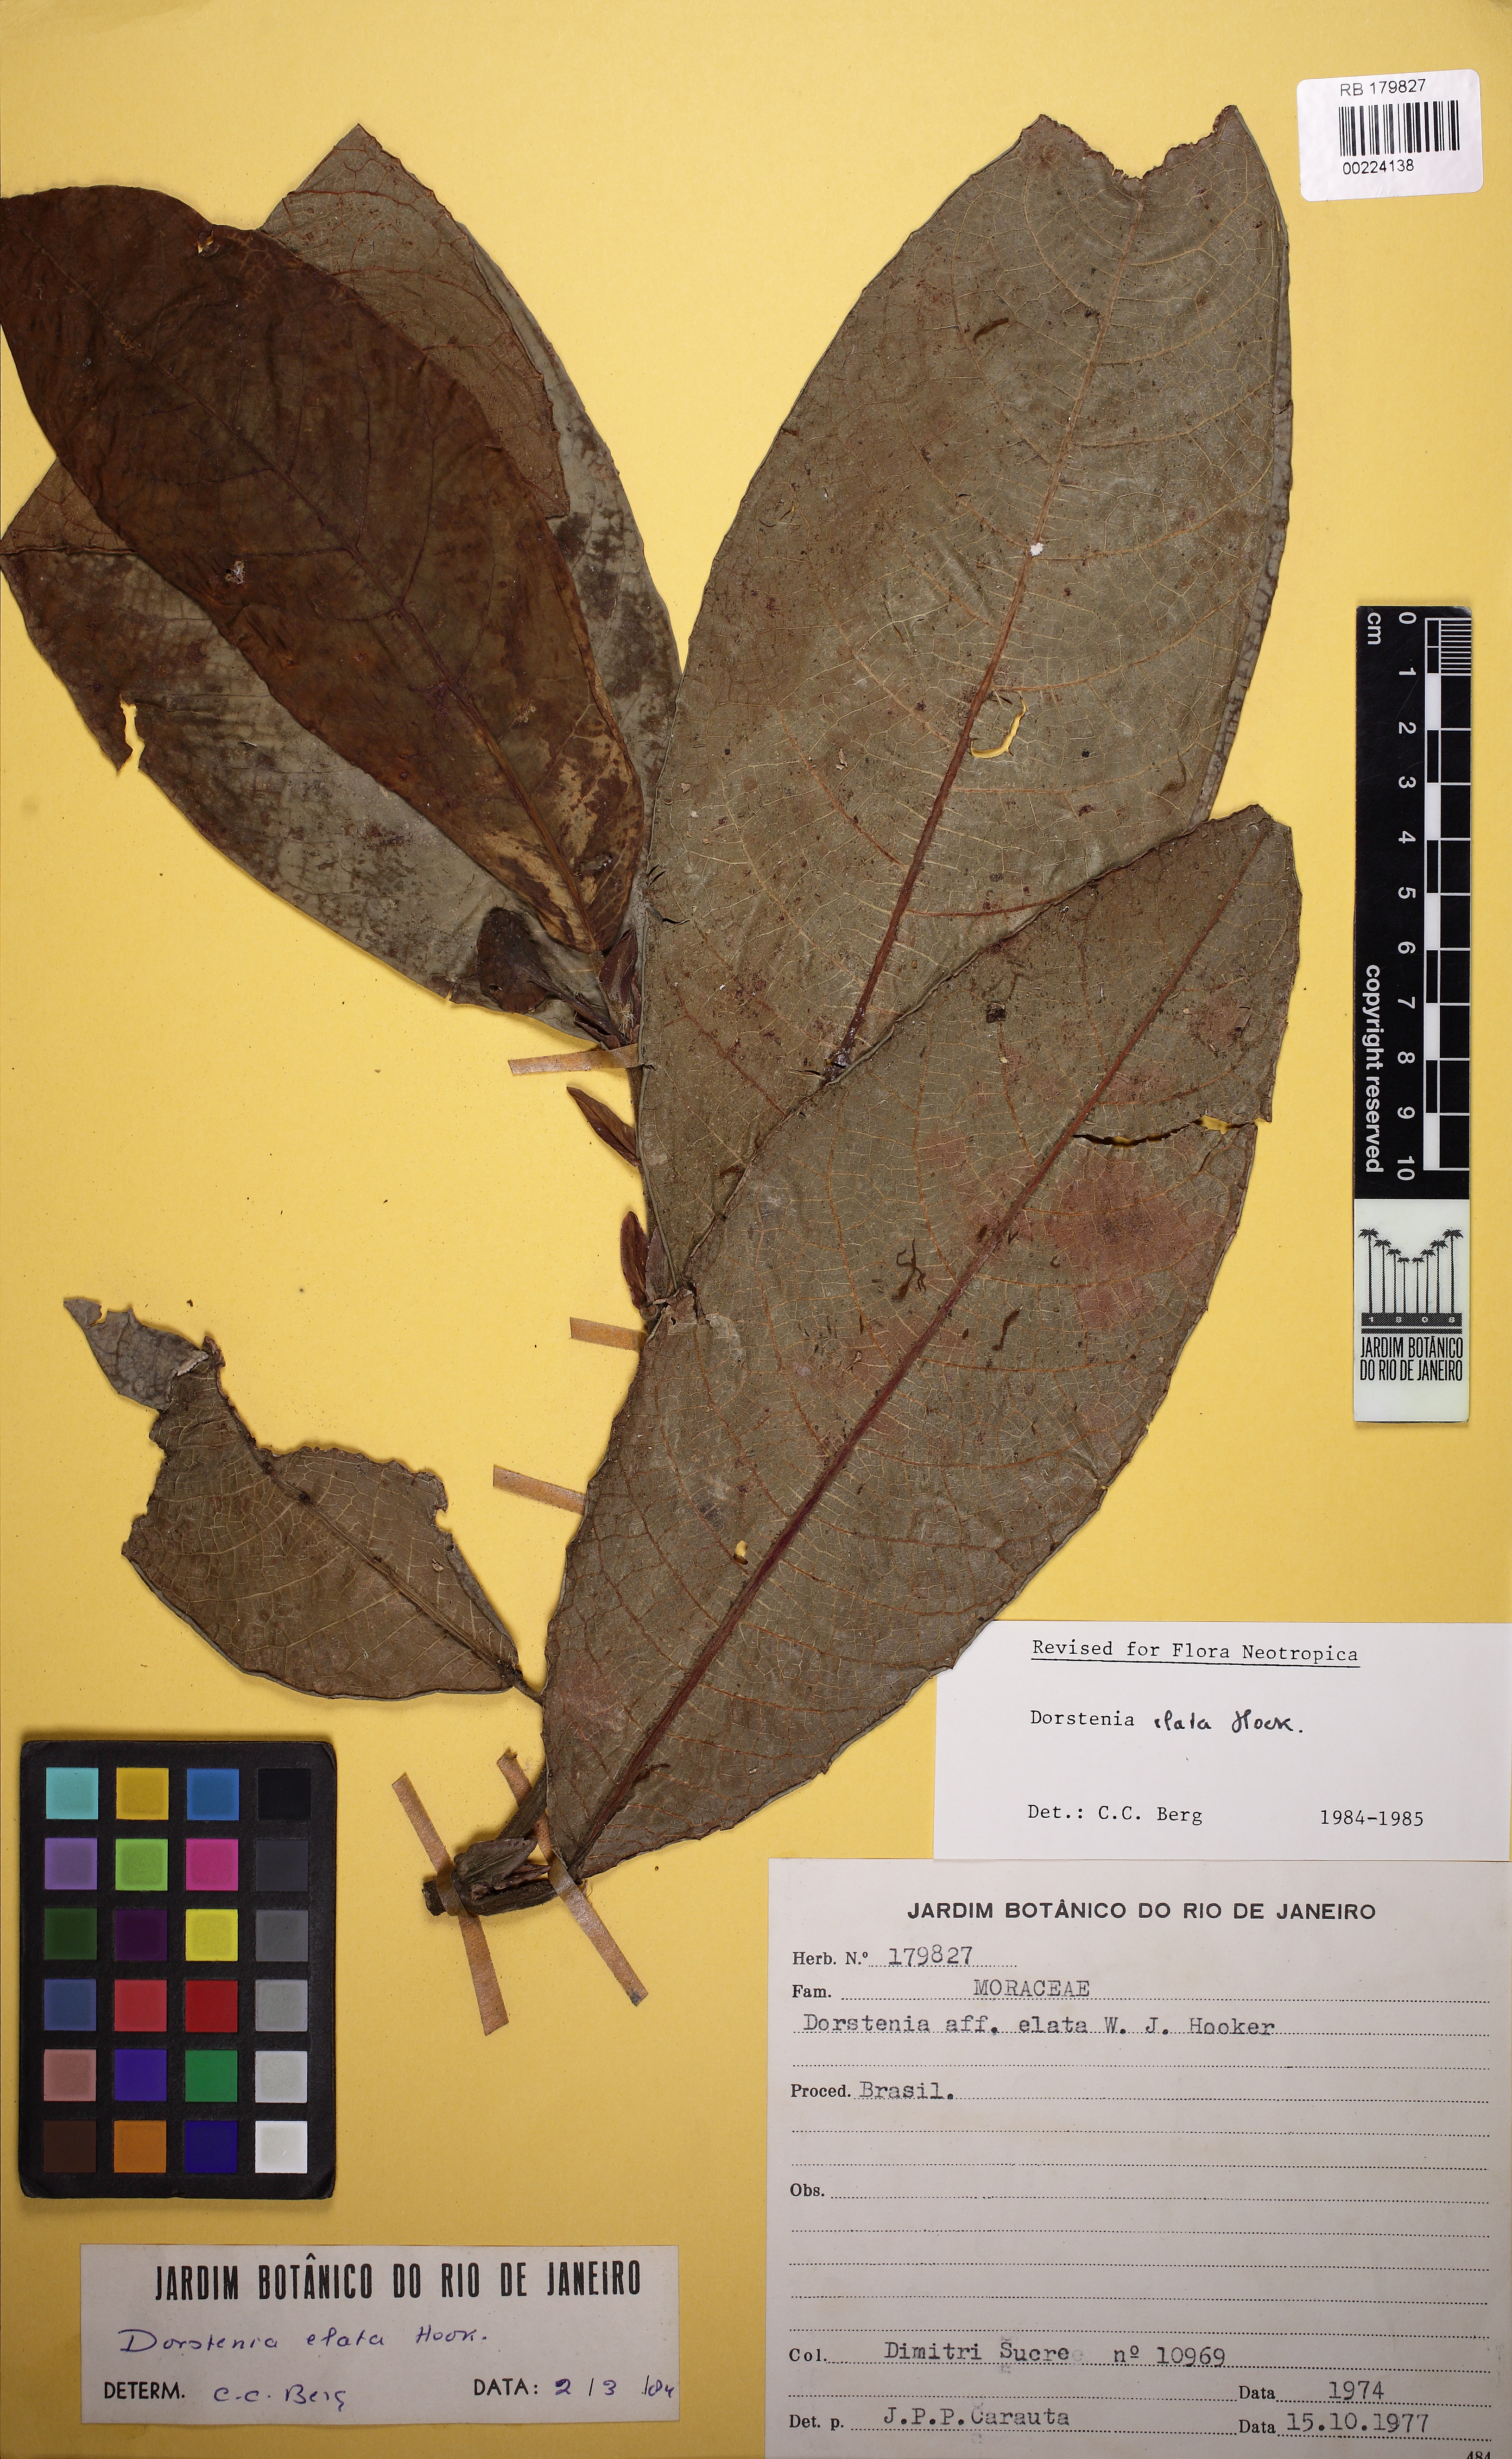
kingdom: Plantae
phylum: Tracheophyta
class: Magnoliopsida
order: Rosales
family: Moraceae
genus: Dorstenia
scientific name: Dorstenia elata
